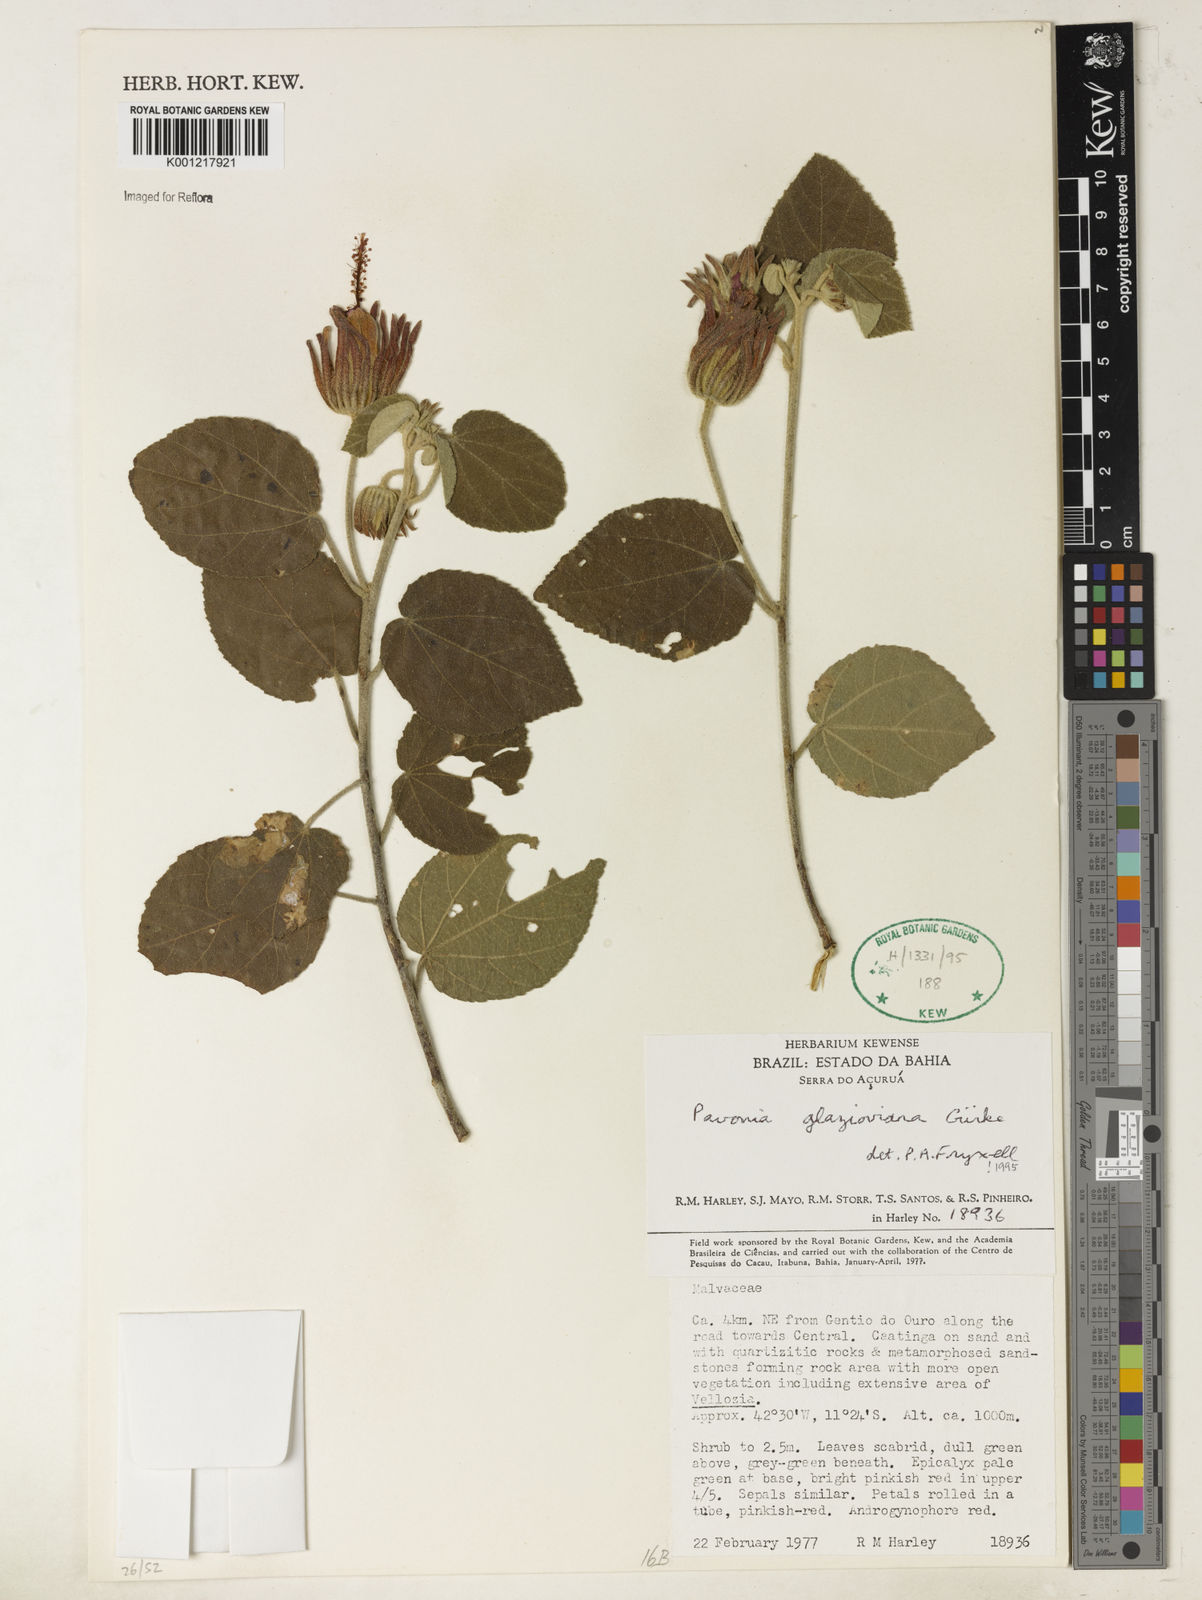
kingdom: Plantae
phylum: Tracheophyta
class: Magnoliopsida
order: Malvales
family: Malvaceae
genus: Pavonia
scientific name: Pavonia
